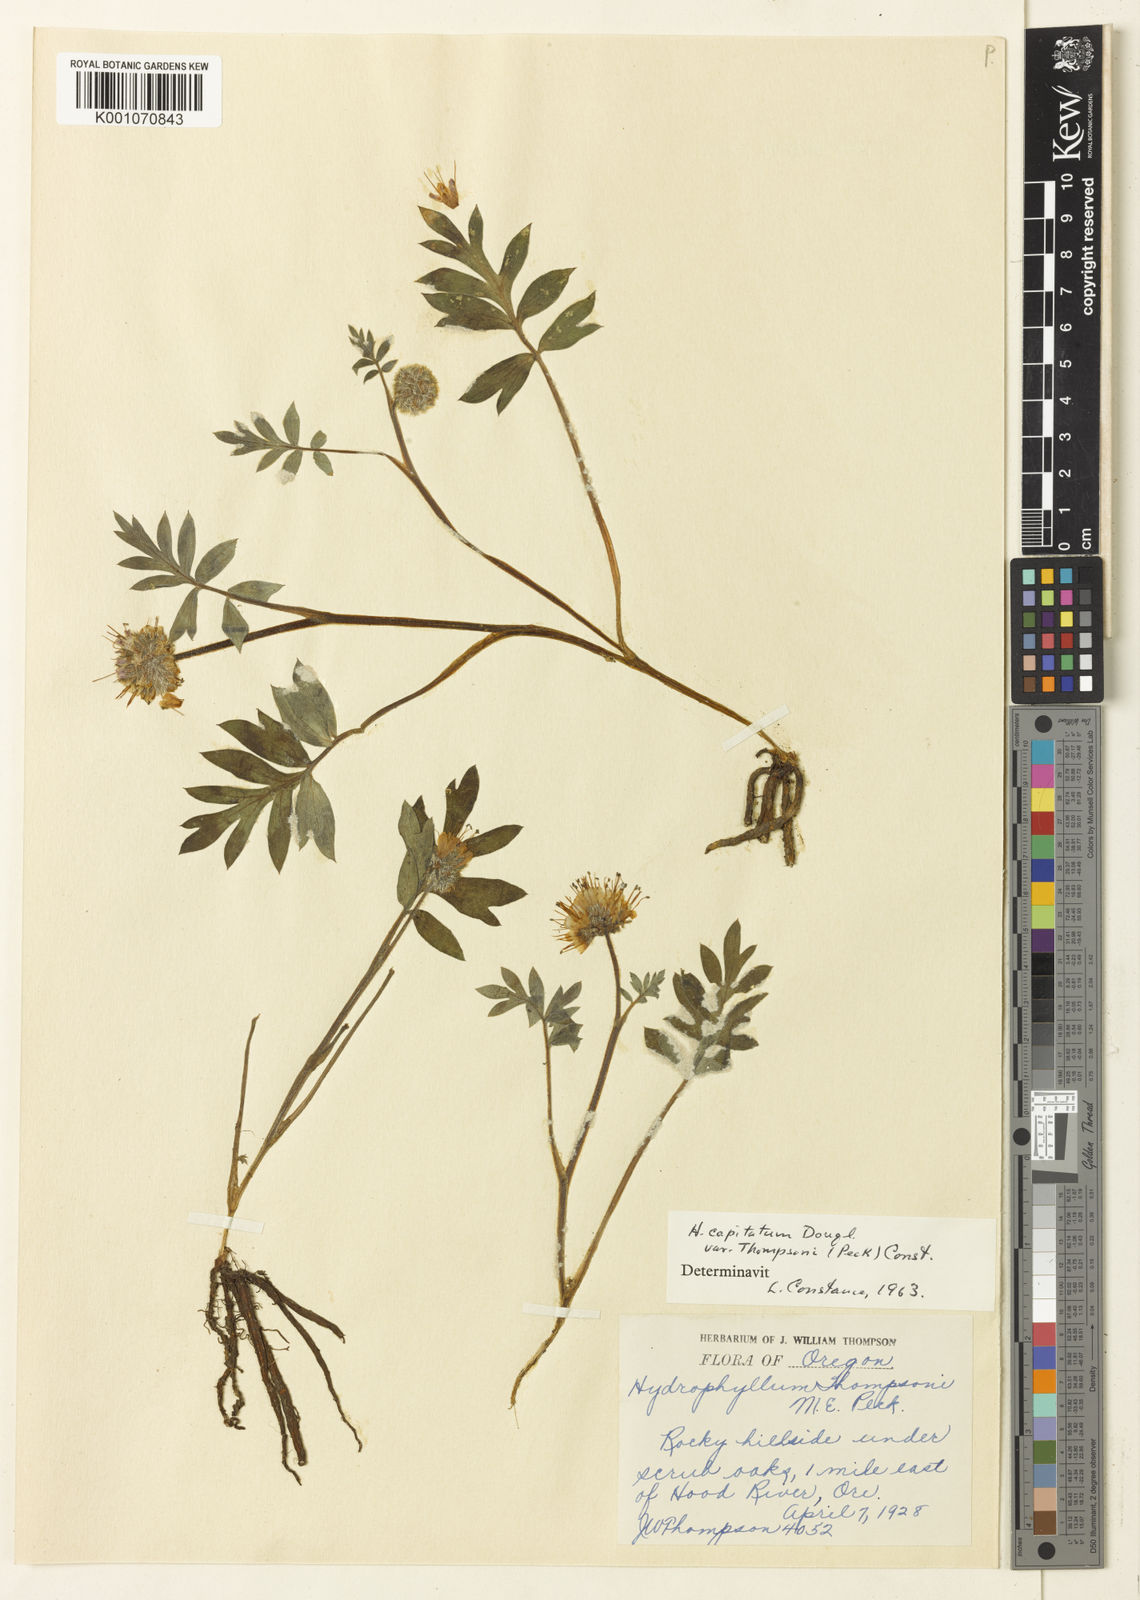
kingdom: Plantae
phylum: Tracheophyta
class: Magnoliopsida
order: Boraginales
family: Hydrophyllaceae
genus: Hydrophyllum
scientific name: Hydrophyllum capitatum
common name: Woollen-breeches
